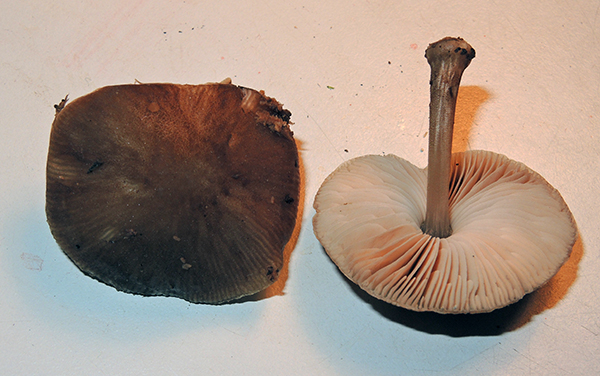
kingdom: Fungi
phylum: Basidiomycota
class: Agaricomycetes
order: Agaricales
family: Pluteaceae
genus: Pluteus
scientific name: Pluteus
